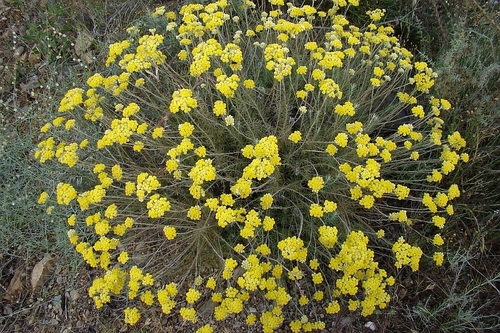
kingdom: Plantae
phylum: Tracheophyta
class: Magnoliopsida
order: Asterales
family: Asteraceae
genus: Helichrysum
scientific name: Helichrysum stoechas
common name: Goldilocks
